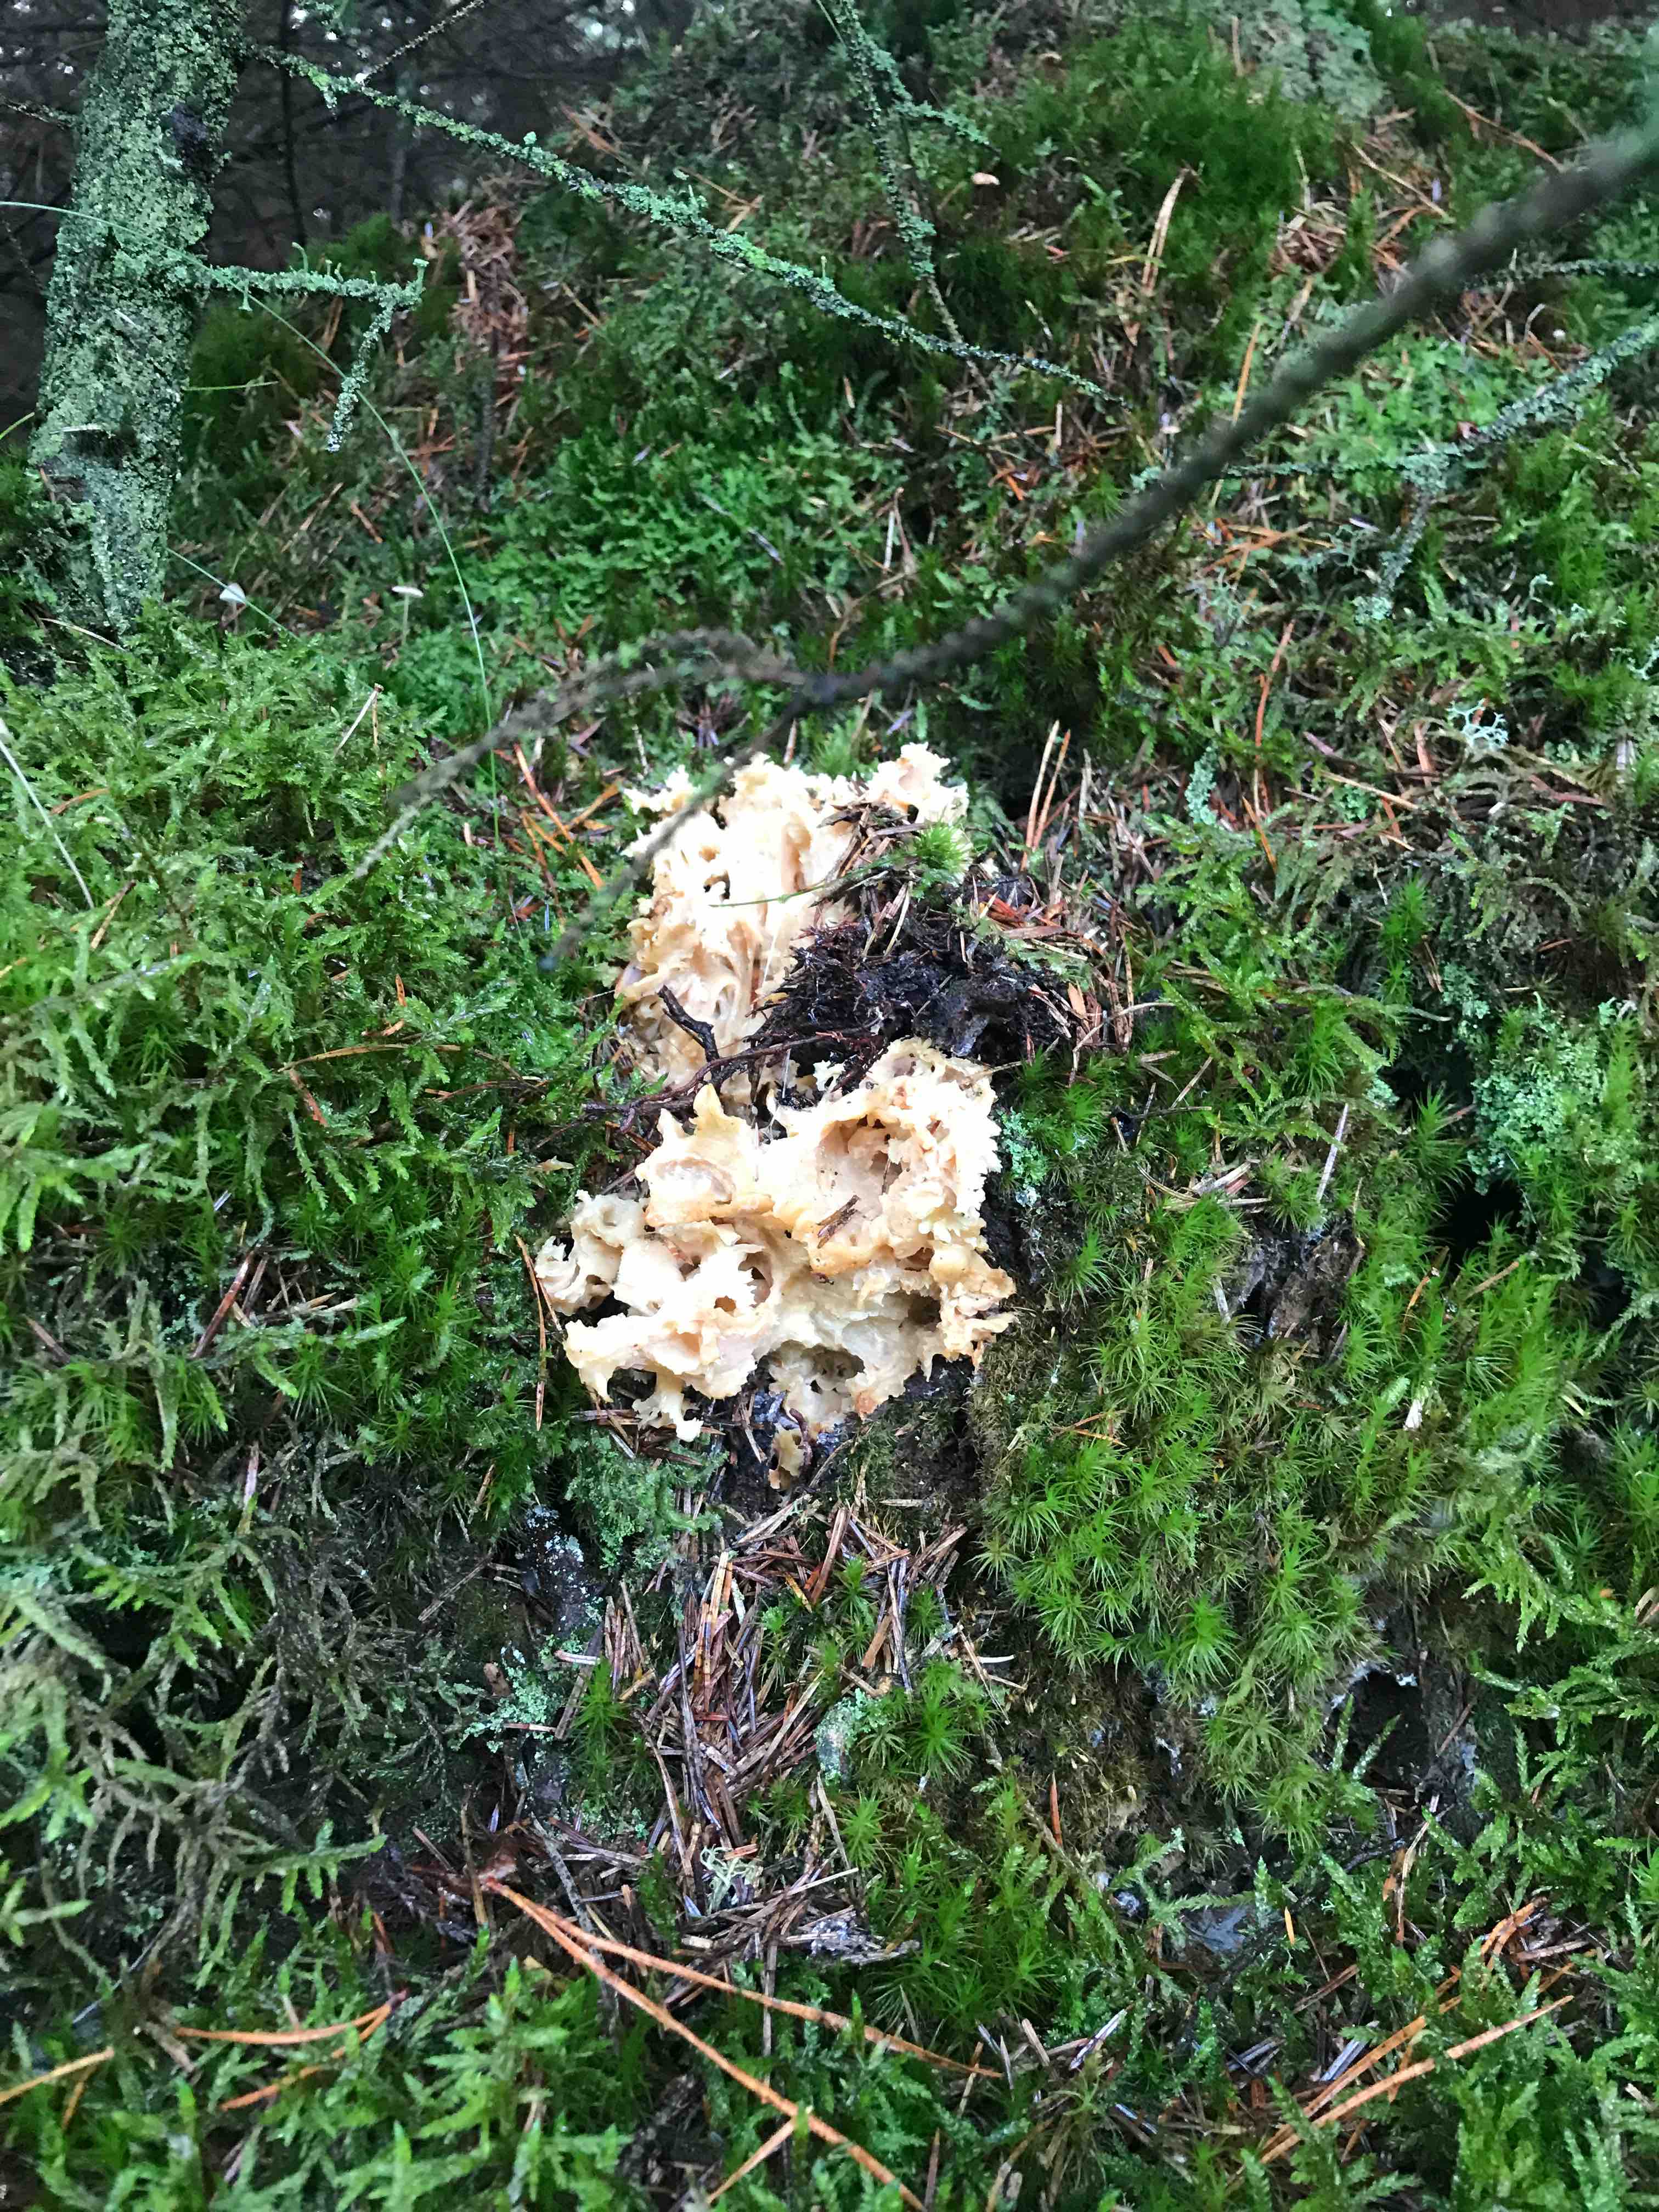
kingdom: Fungi
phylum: Basidiomycota
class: Agaricomycetes
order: Polyporales
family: Sparassidaceae
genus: Sparassis
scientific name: Sparassis crispa
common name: kruset blomkålssvamp
